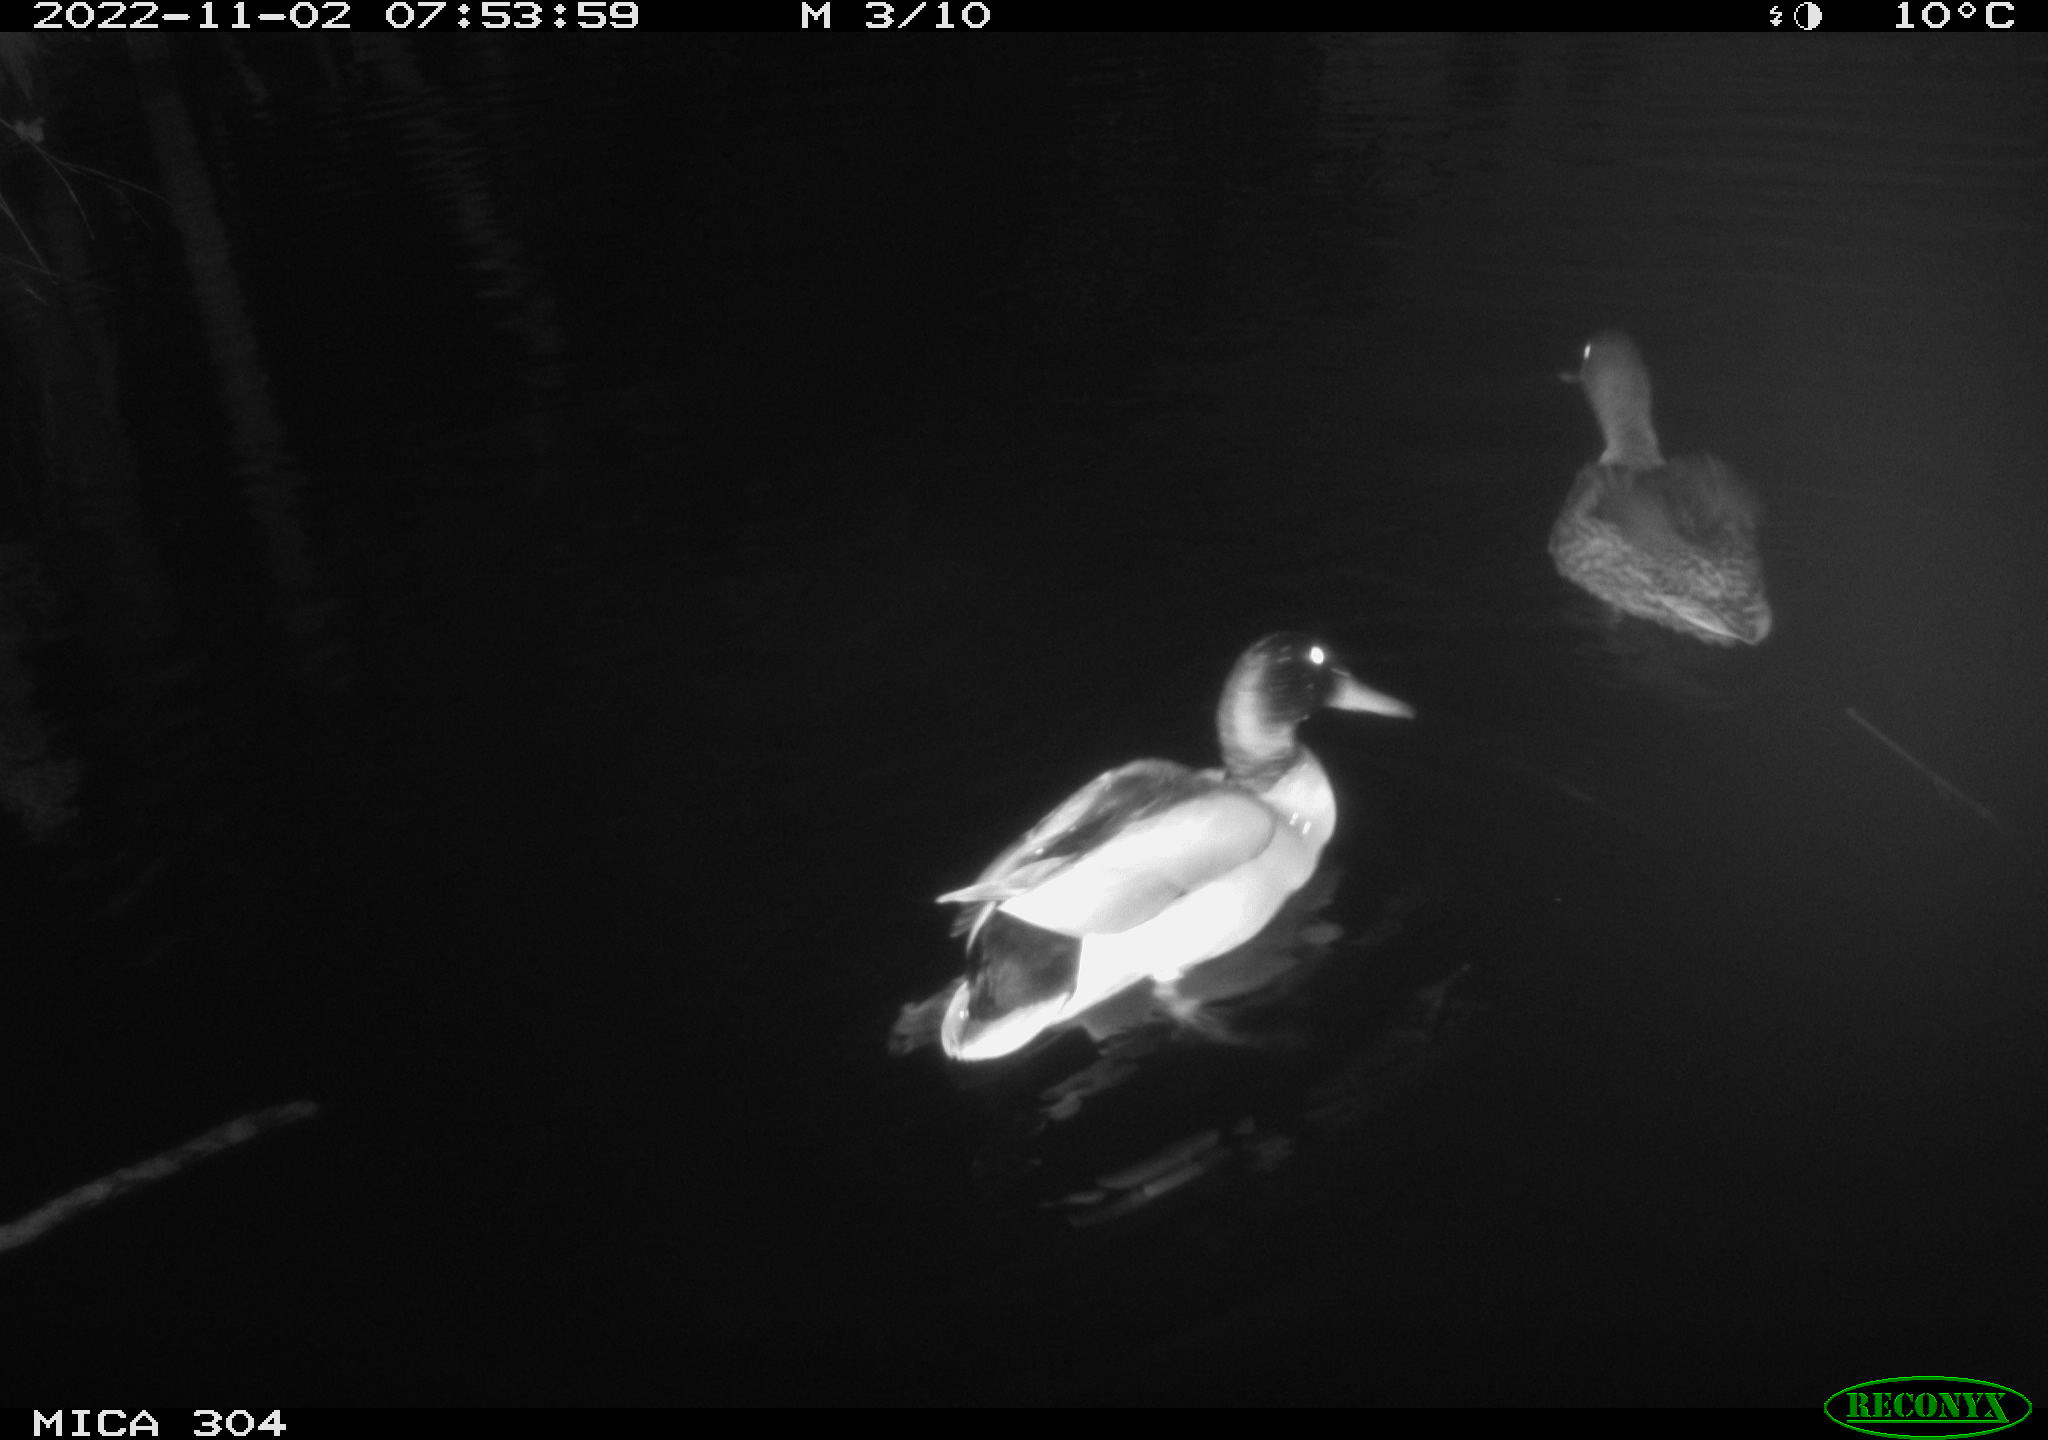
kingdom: Animalia
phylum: Chordata
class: Aves
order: Anseriformes
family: Anatidae
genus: Anas
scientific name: Anas
